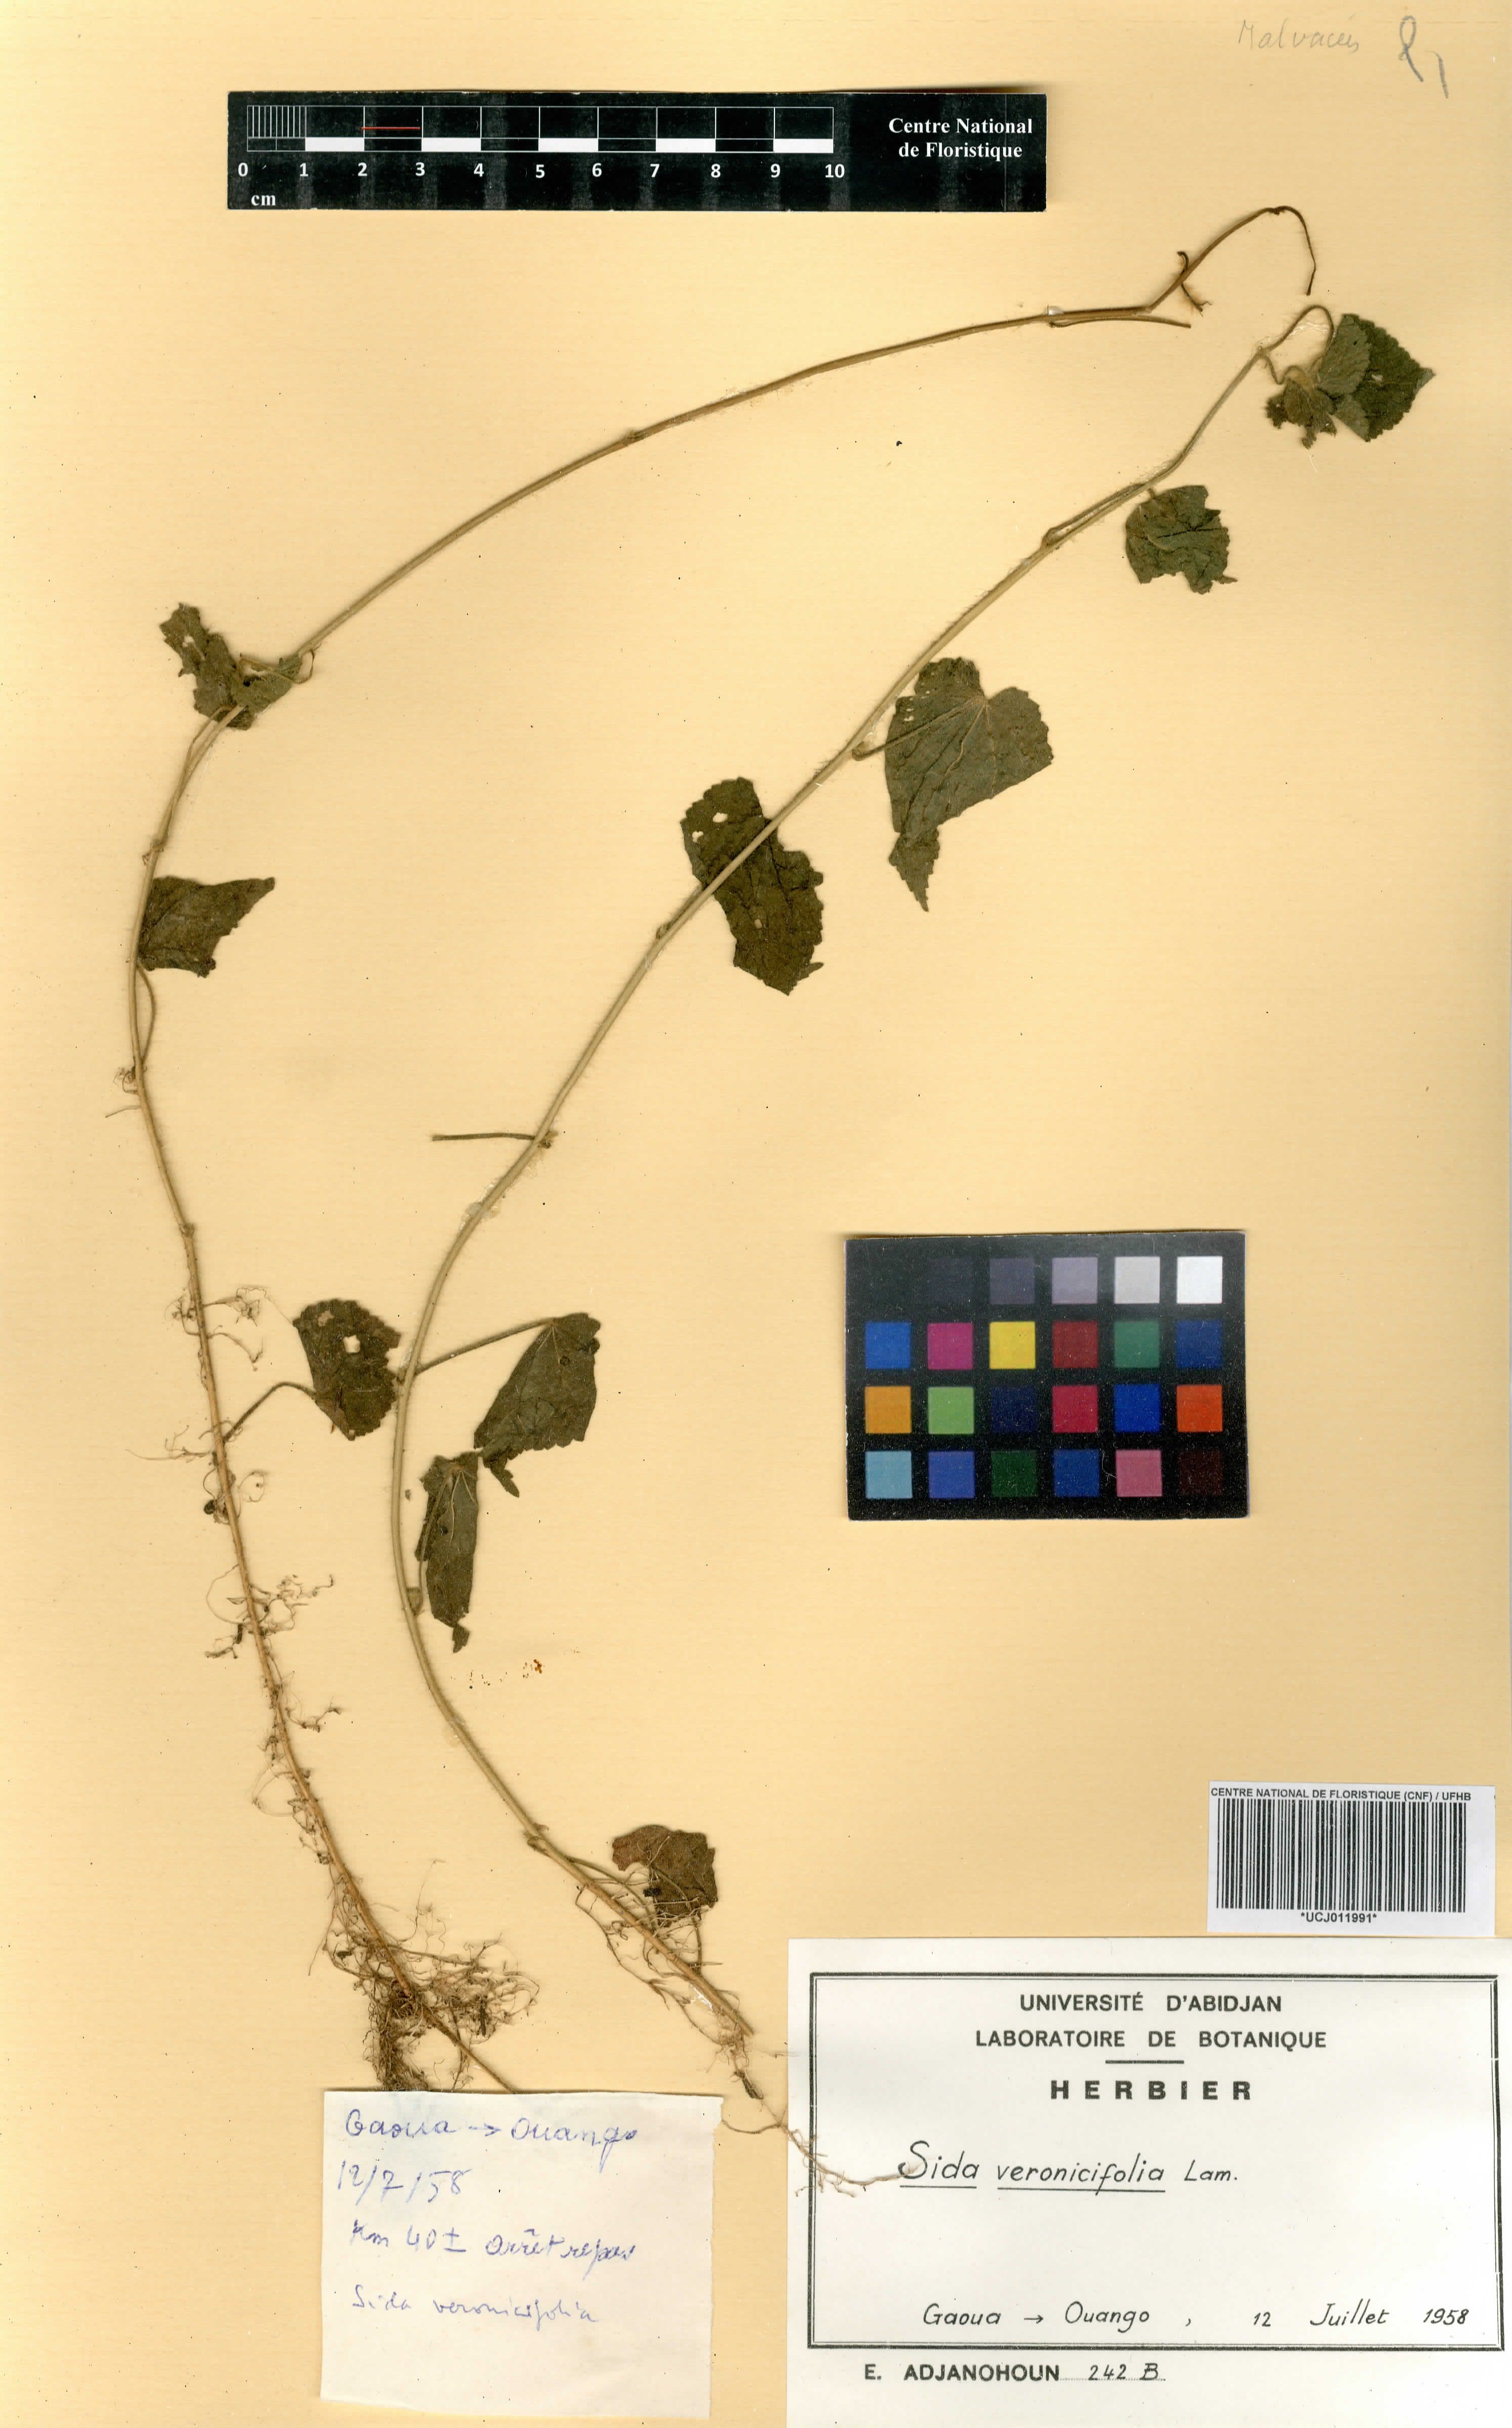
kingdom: Plantae
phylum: Tracheophyta
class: Magnoliopsida
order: Malvales
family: Malvaceae
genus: Sida
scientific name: Sida cordata
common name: Long-stalk sida
